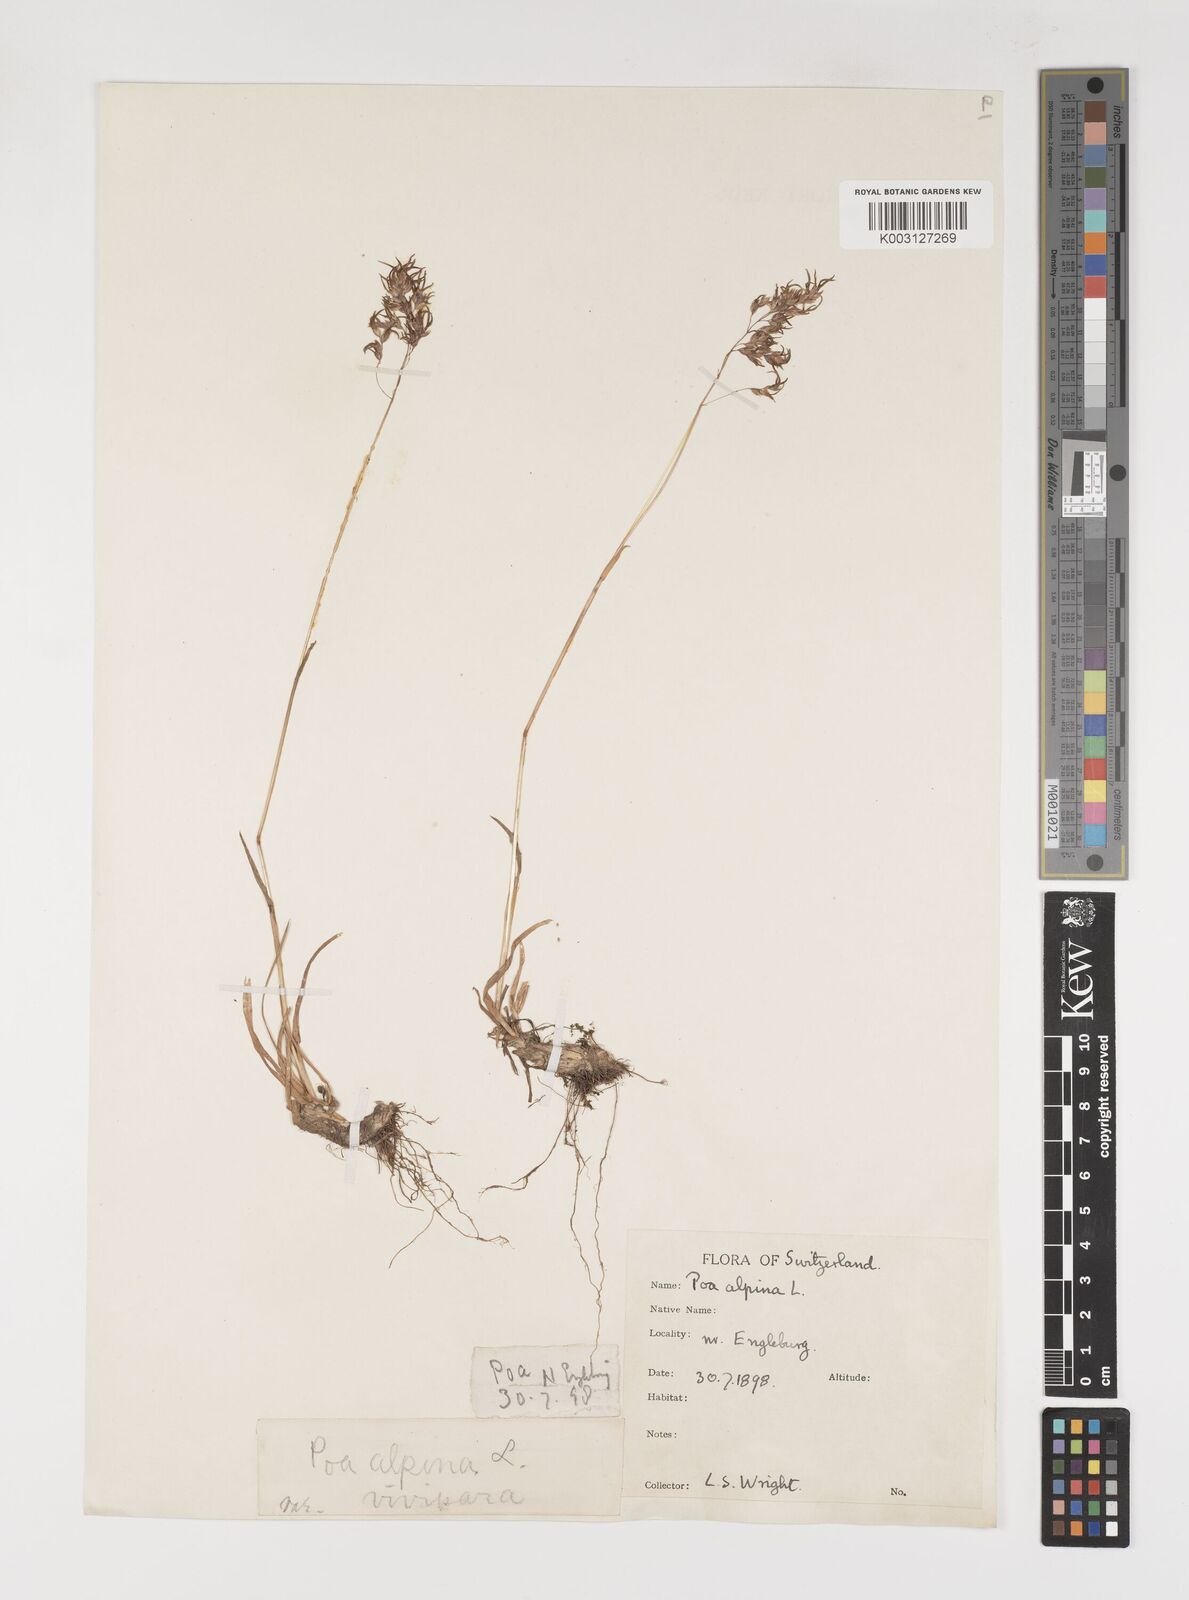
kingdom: Plantae
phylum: Tracheophyta
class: Liliopsida
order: Poales
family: Poaceae
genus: Poa
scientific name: Poa alpina
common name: Alpine bluegrass
